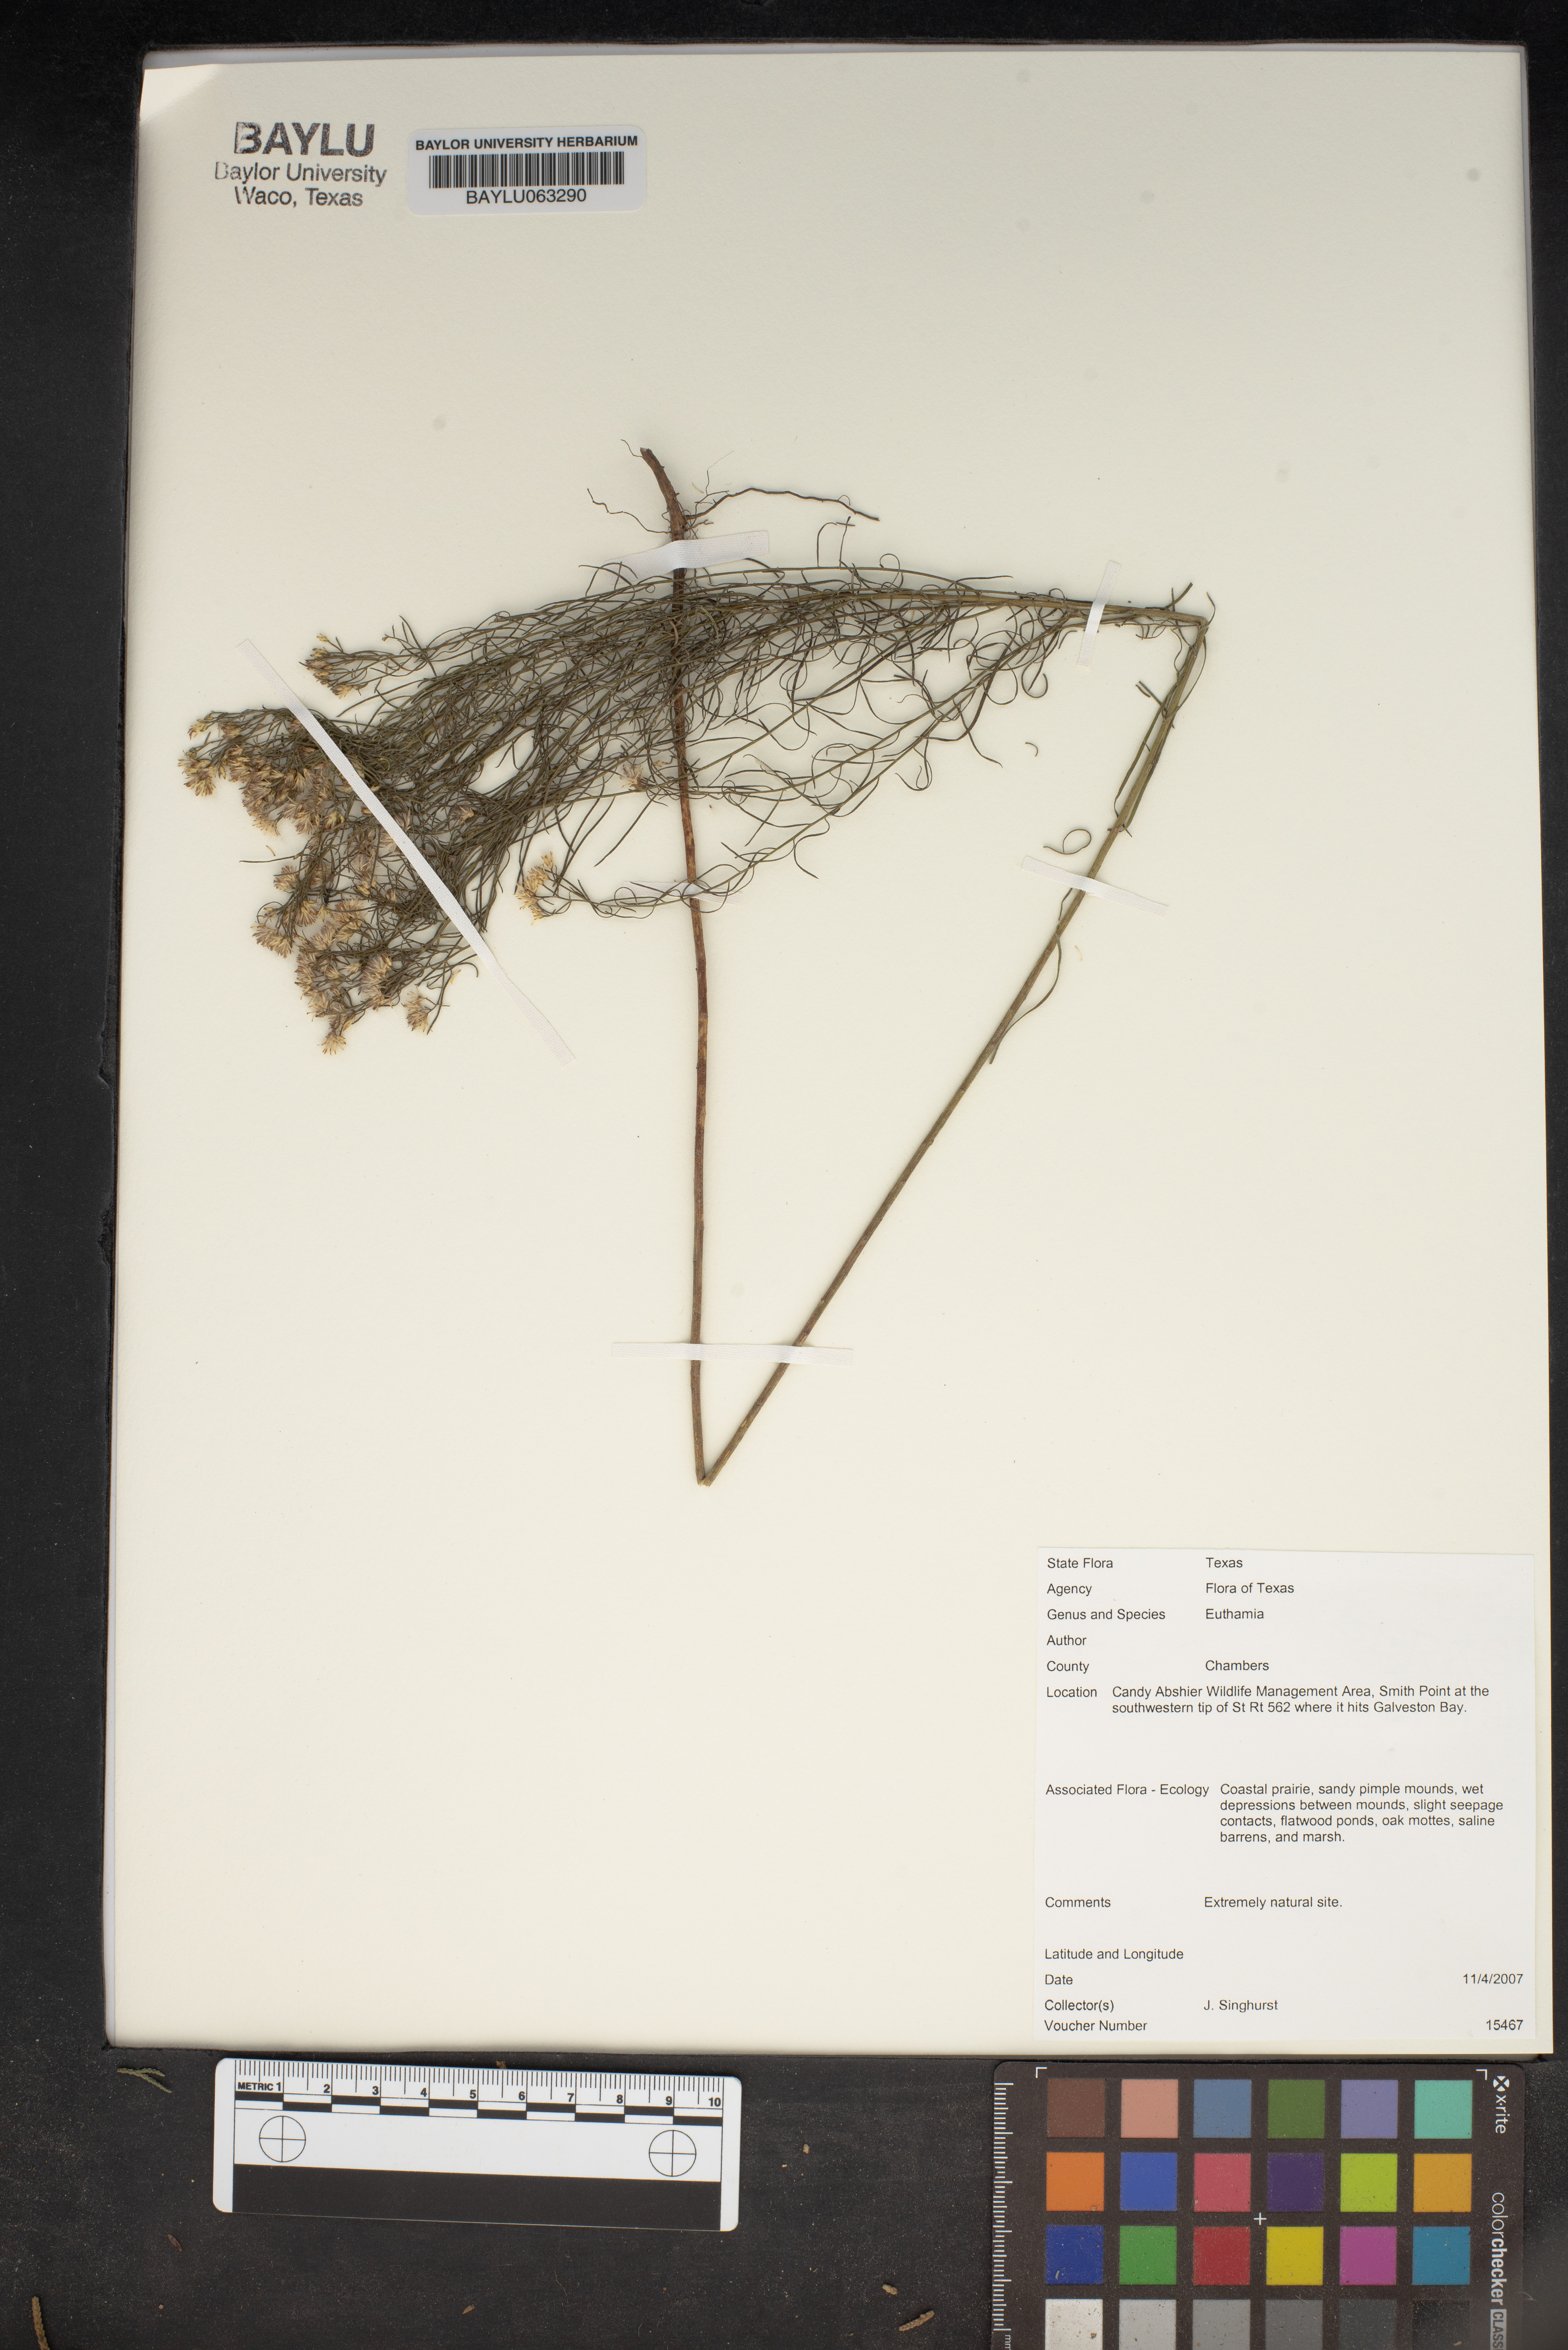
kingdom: Plantae
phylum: Tracheophyta
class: Magnoliopsida
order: Asterales
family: Asteraceae
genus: Euthamia
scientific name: Euthamia
